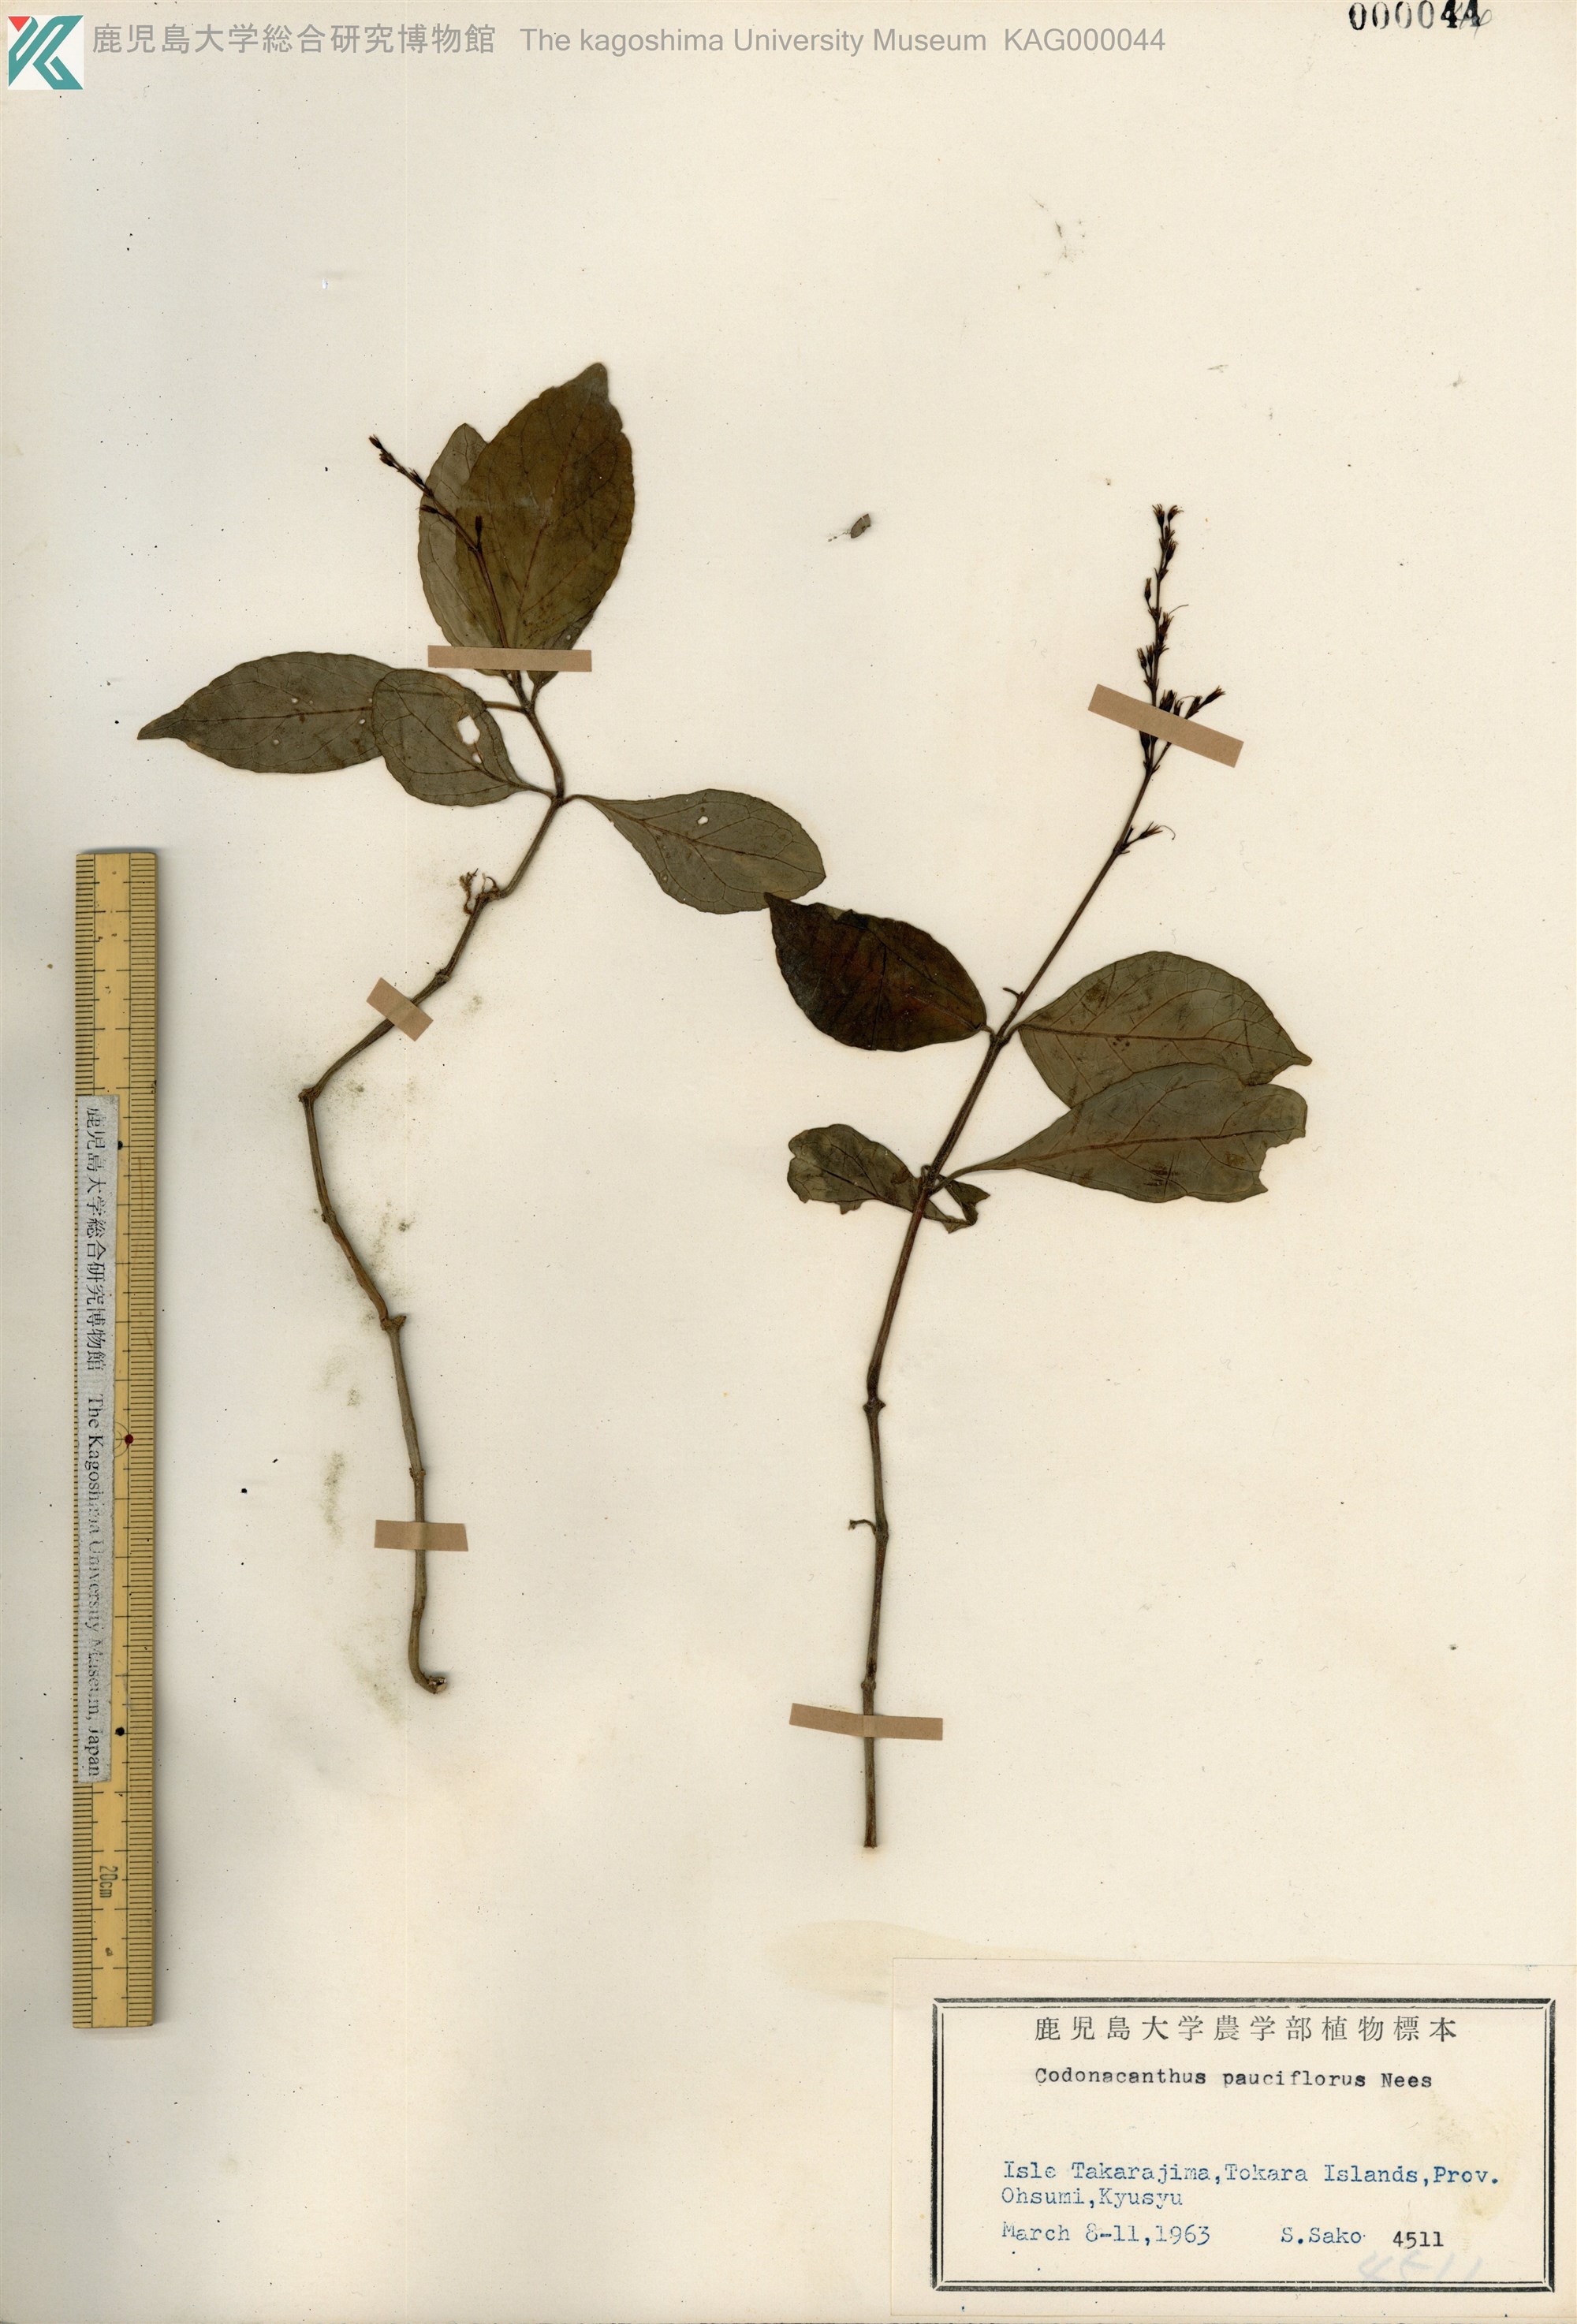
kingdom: Plantae
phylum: Tracheophyta
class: Magnoliopsida
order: Lamiales
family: Acanthaceae
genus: Codonacanthus
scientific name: Codonacanthus pauciflorus
